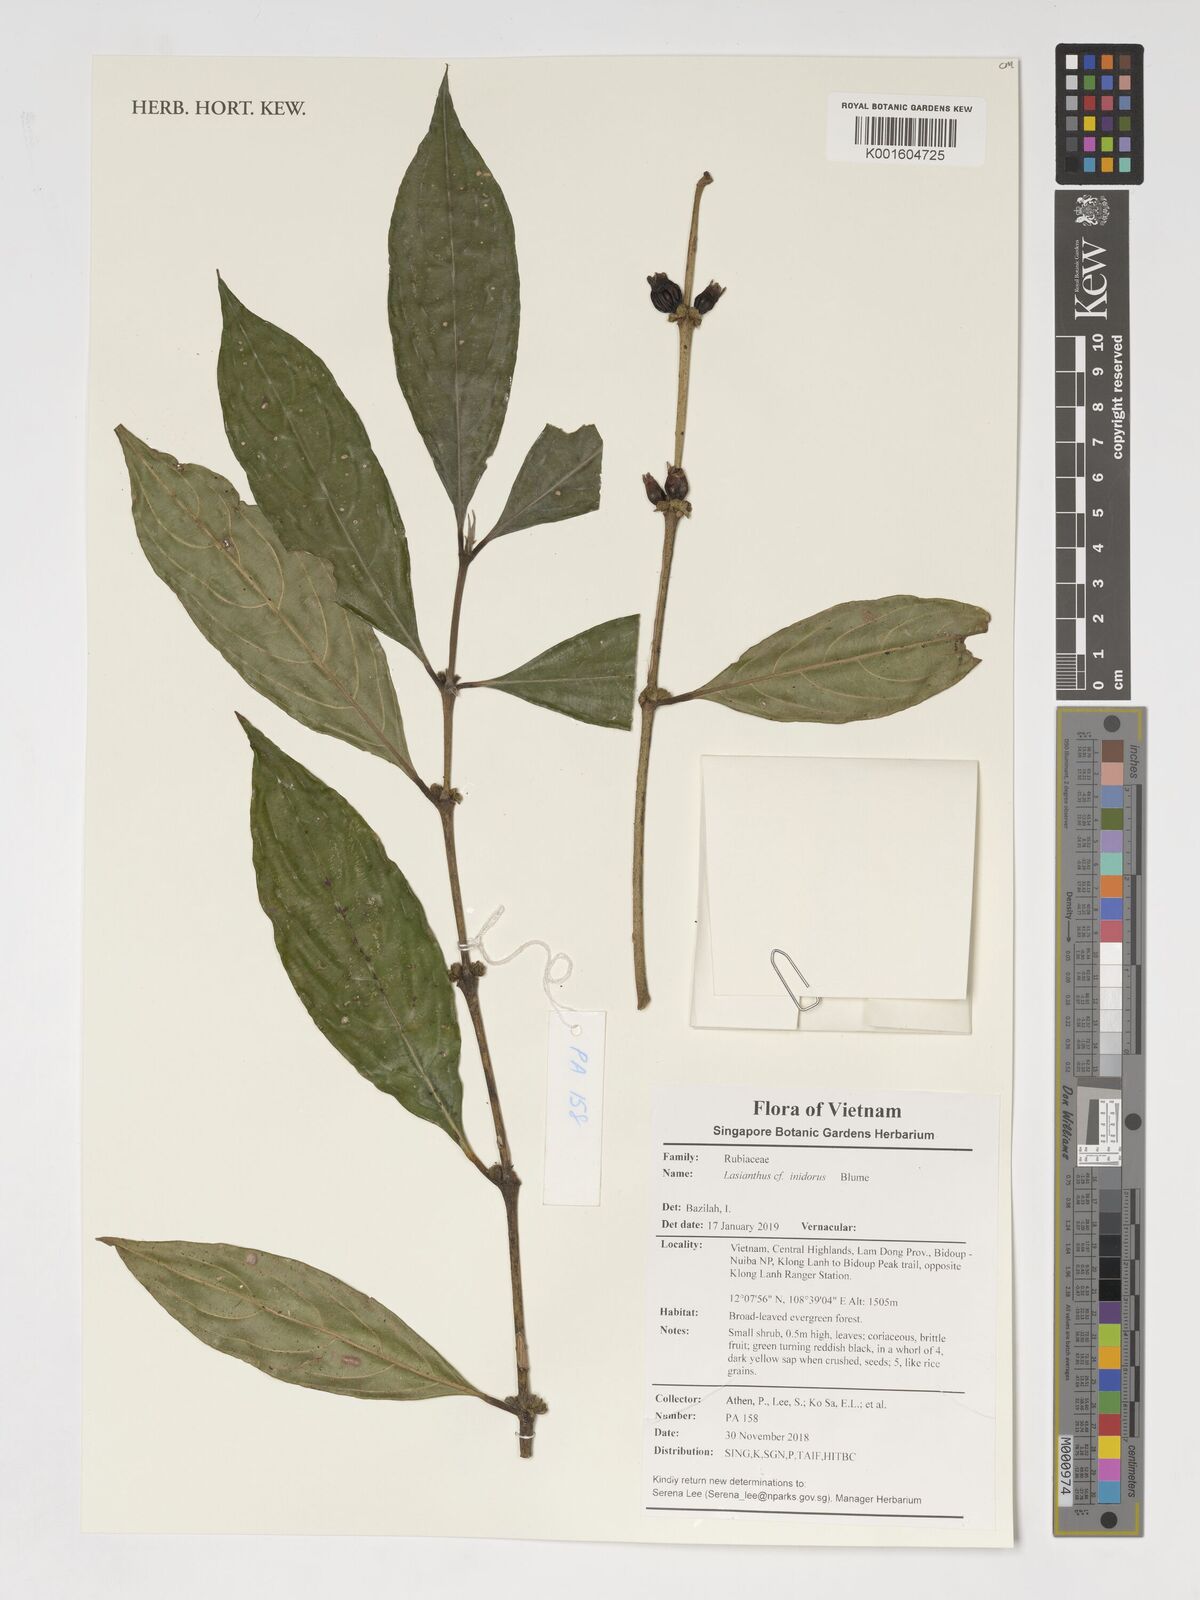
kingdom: Plantae
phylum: Tracheophyta
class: Magnoliopsida
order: Gentianales
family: Rubiaceae
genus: Lasianthus
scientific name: Lasianthus inodorus
